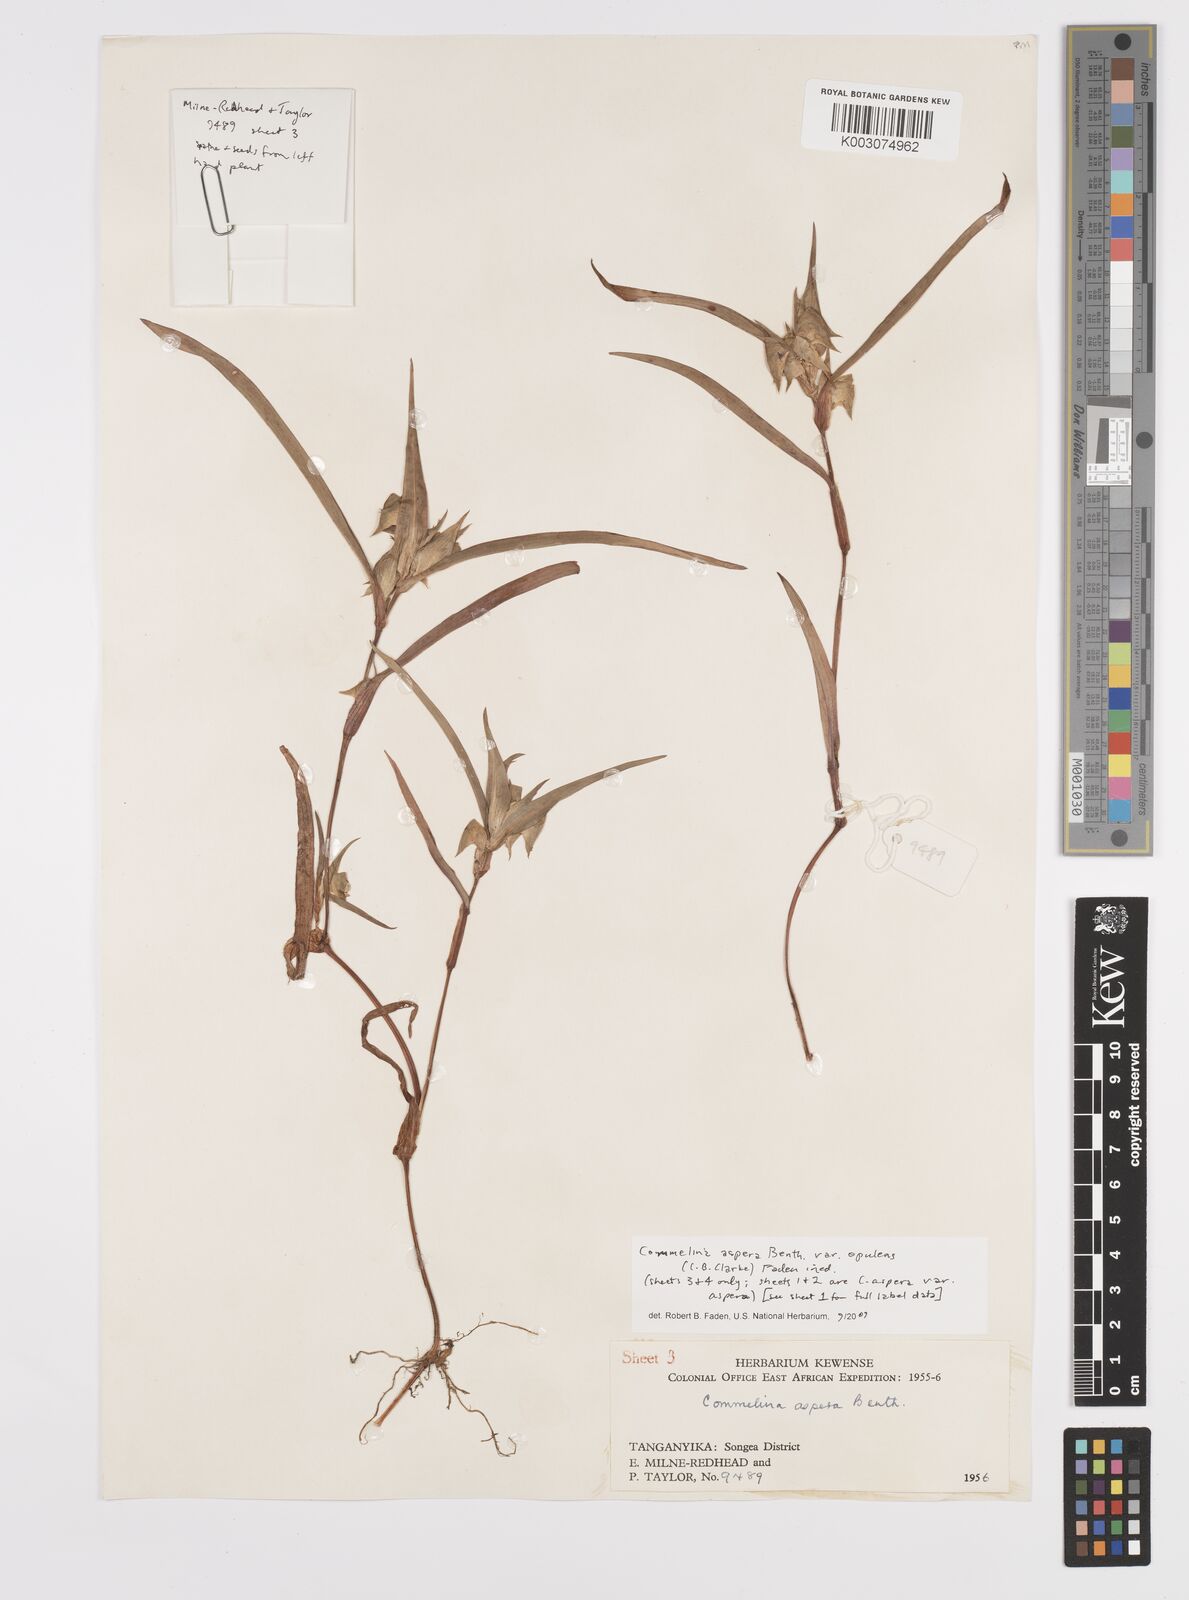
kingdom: Plantae
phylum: Tracheophyta
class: Liliopsida
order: Commelinales
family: Commelinaceae
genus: Commelina
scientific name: Commelina aspera
